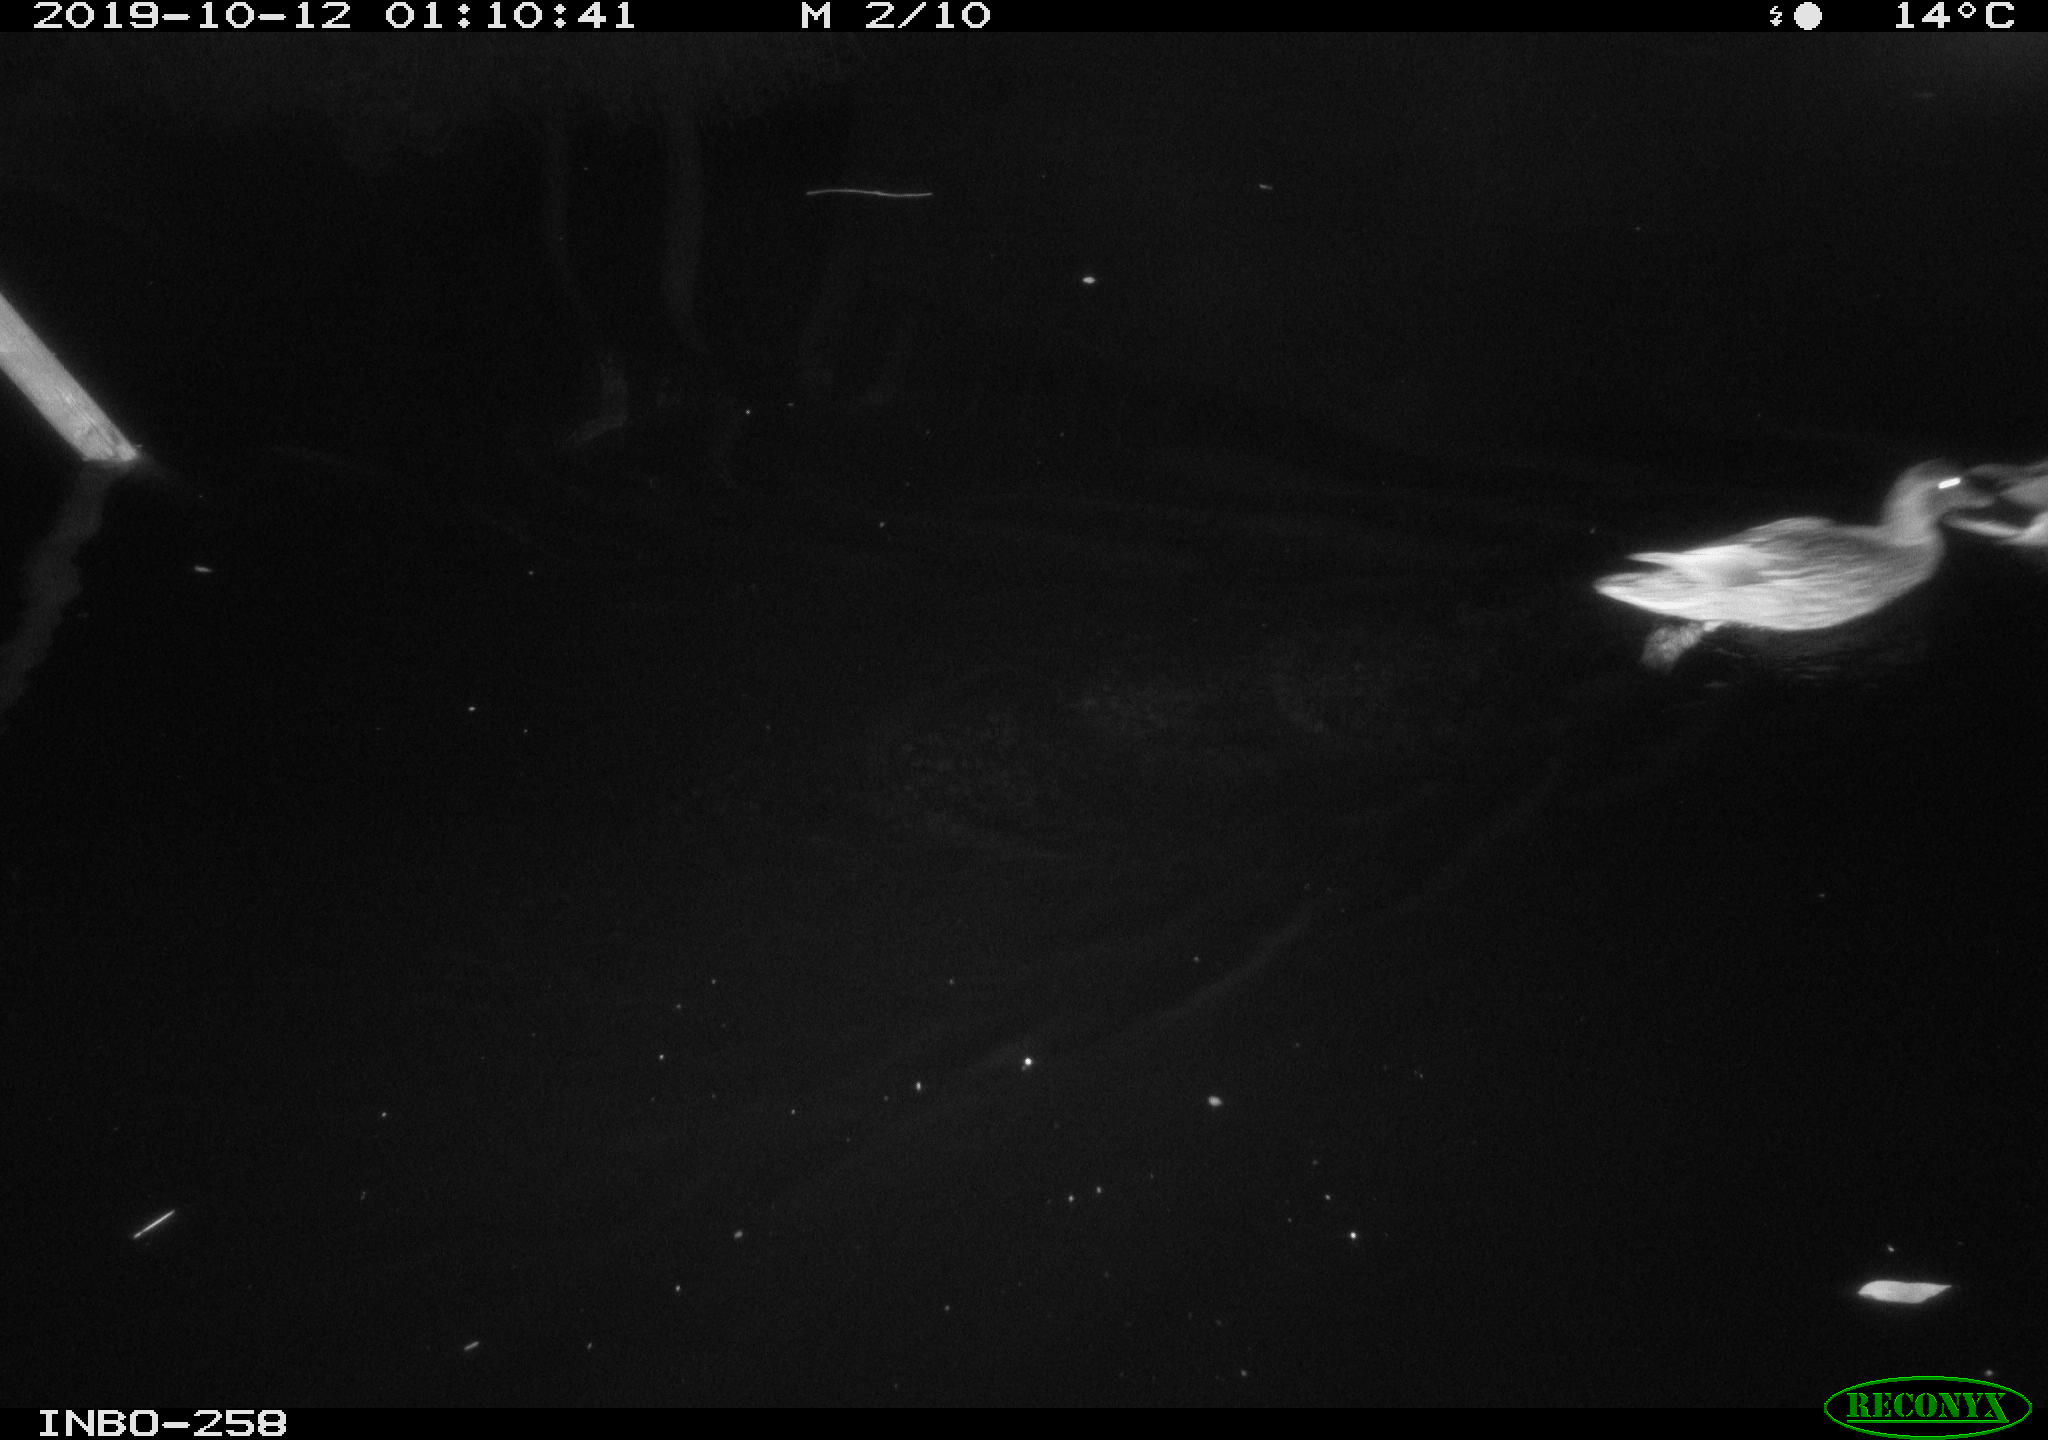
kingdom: Animalia
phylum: Chordata
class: Aves
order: Anseriformes
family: Anatidae
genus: Anas
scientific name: Anas platyrhynchos
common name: Mallard
